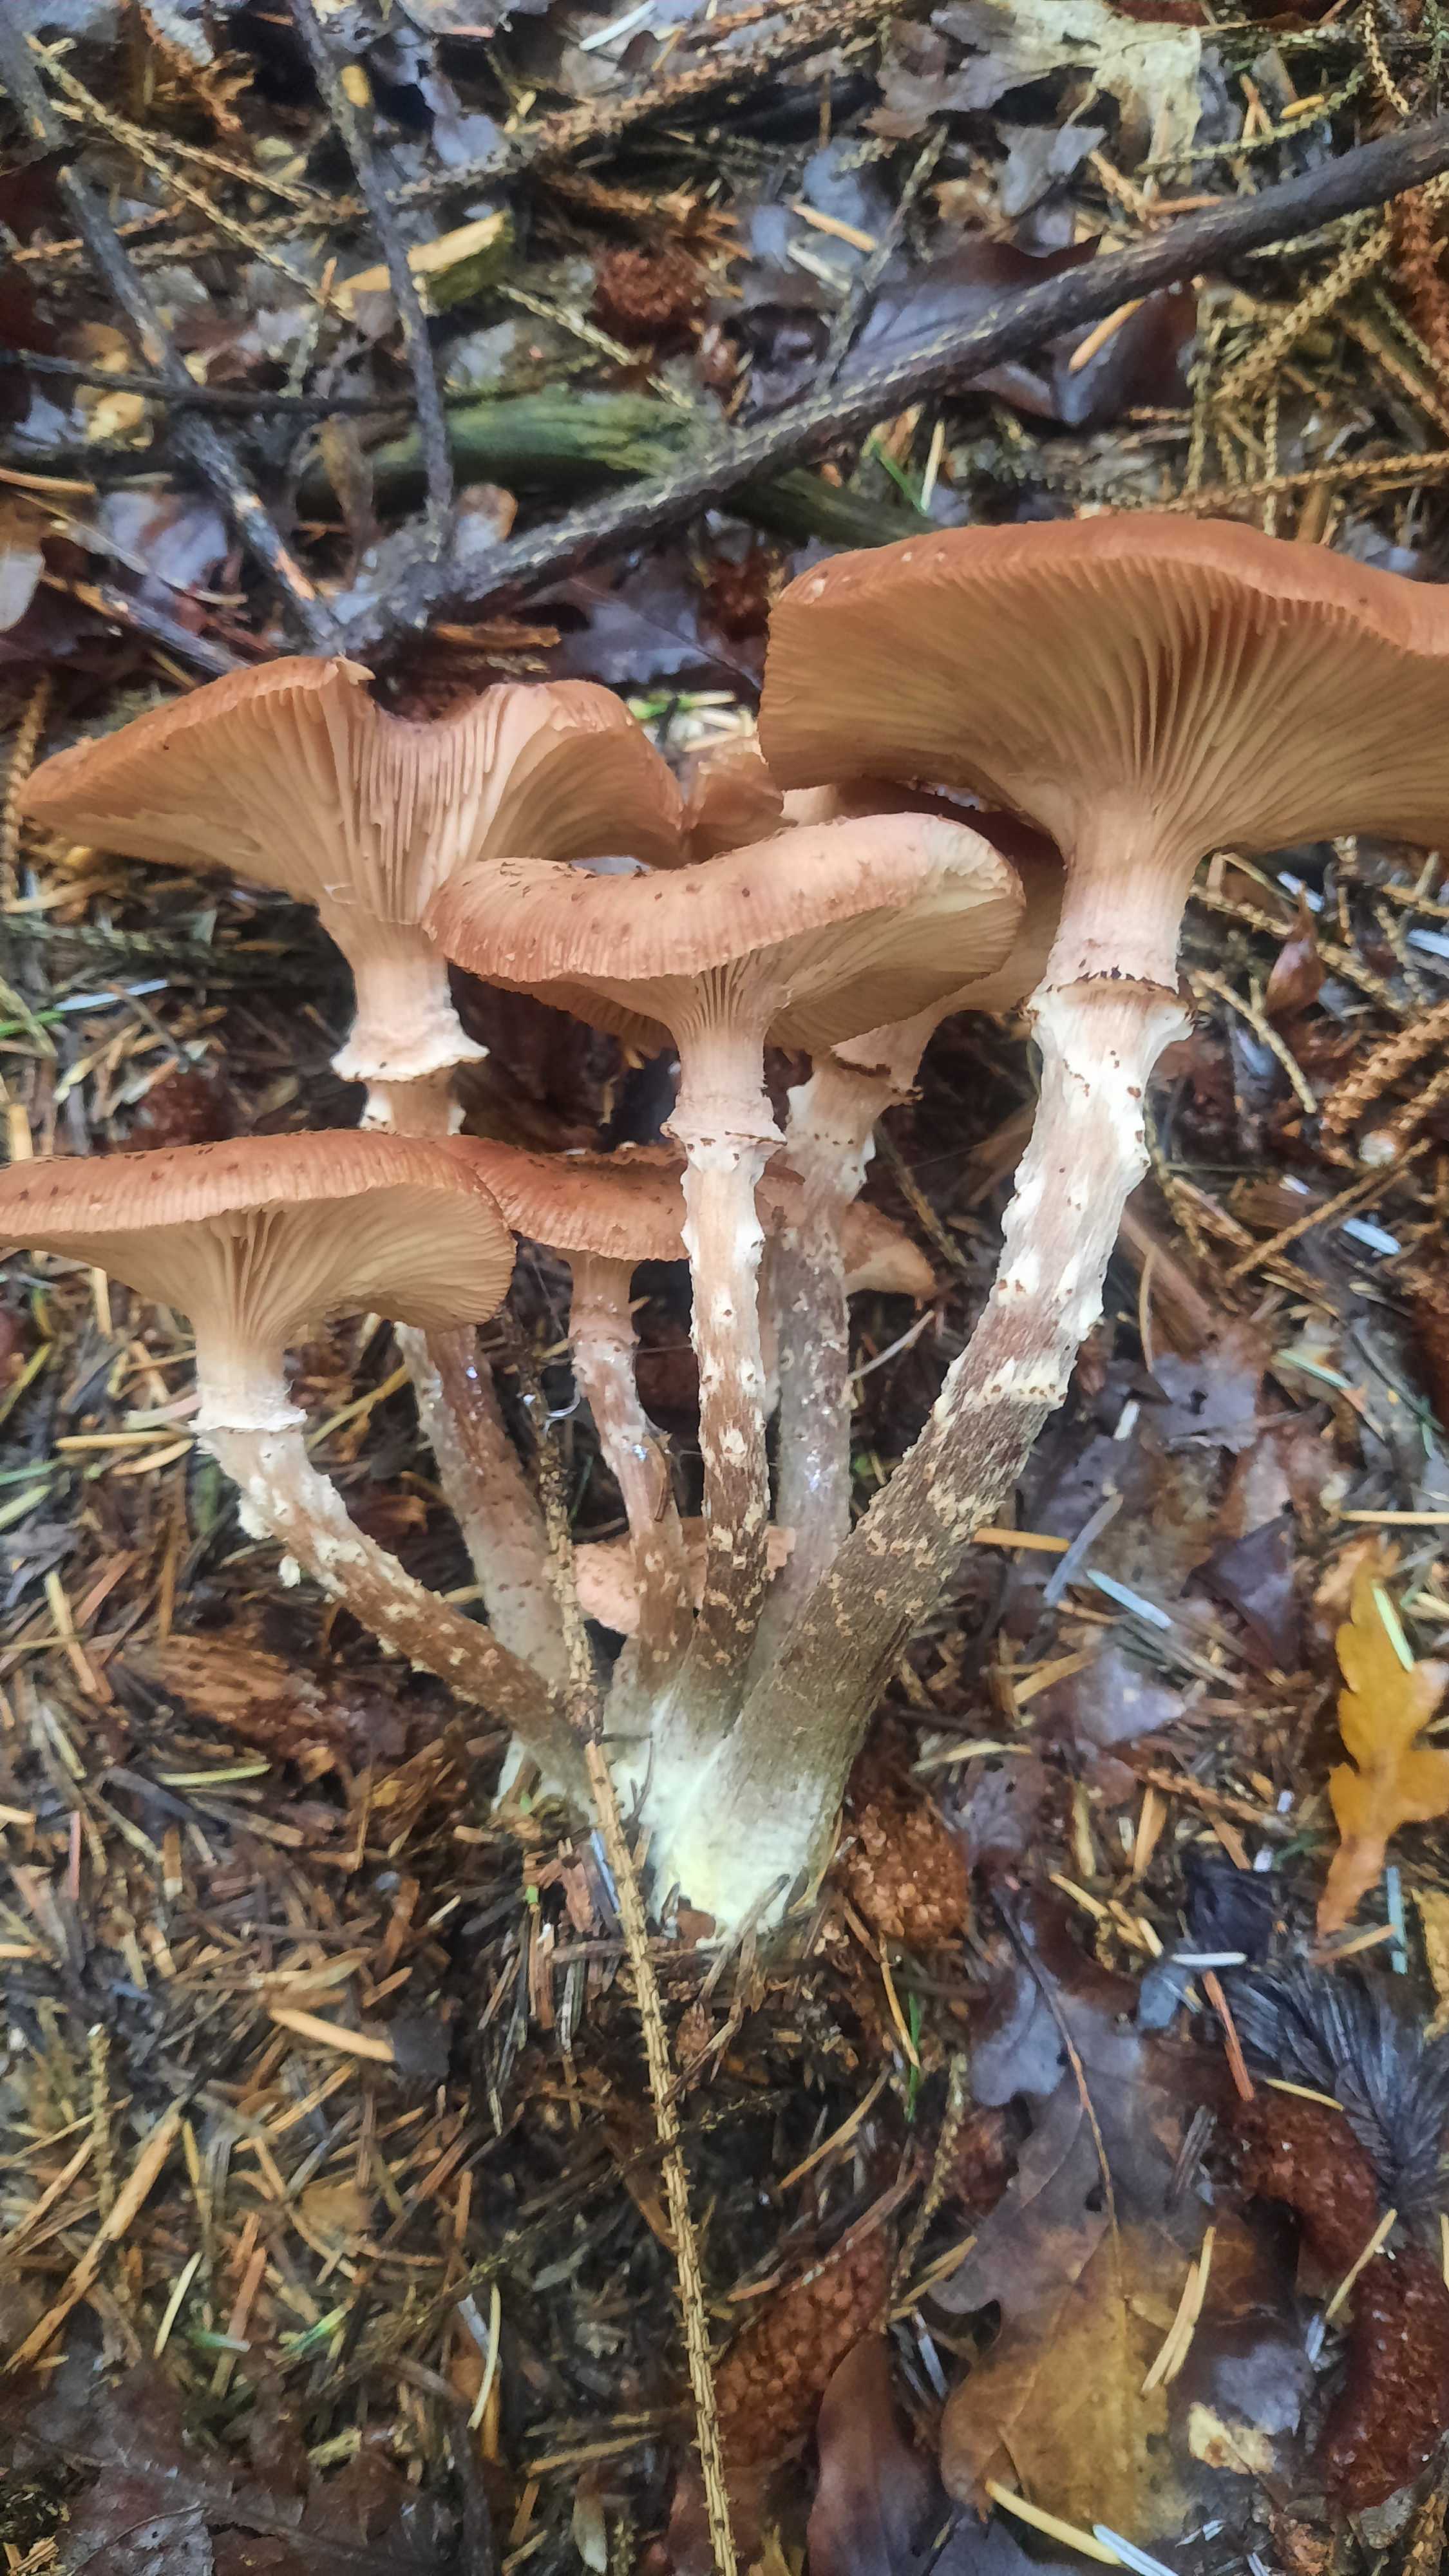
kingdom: Fungi
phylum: Basidiomycota
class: Agaricomycetes
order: Agaricales
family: Physalacriaceae
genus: Armillaria
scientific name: Armillaria ostoyae
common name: mørk honningsvamp
